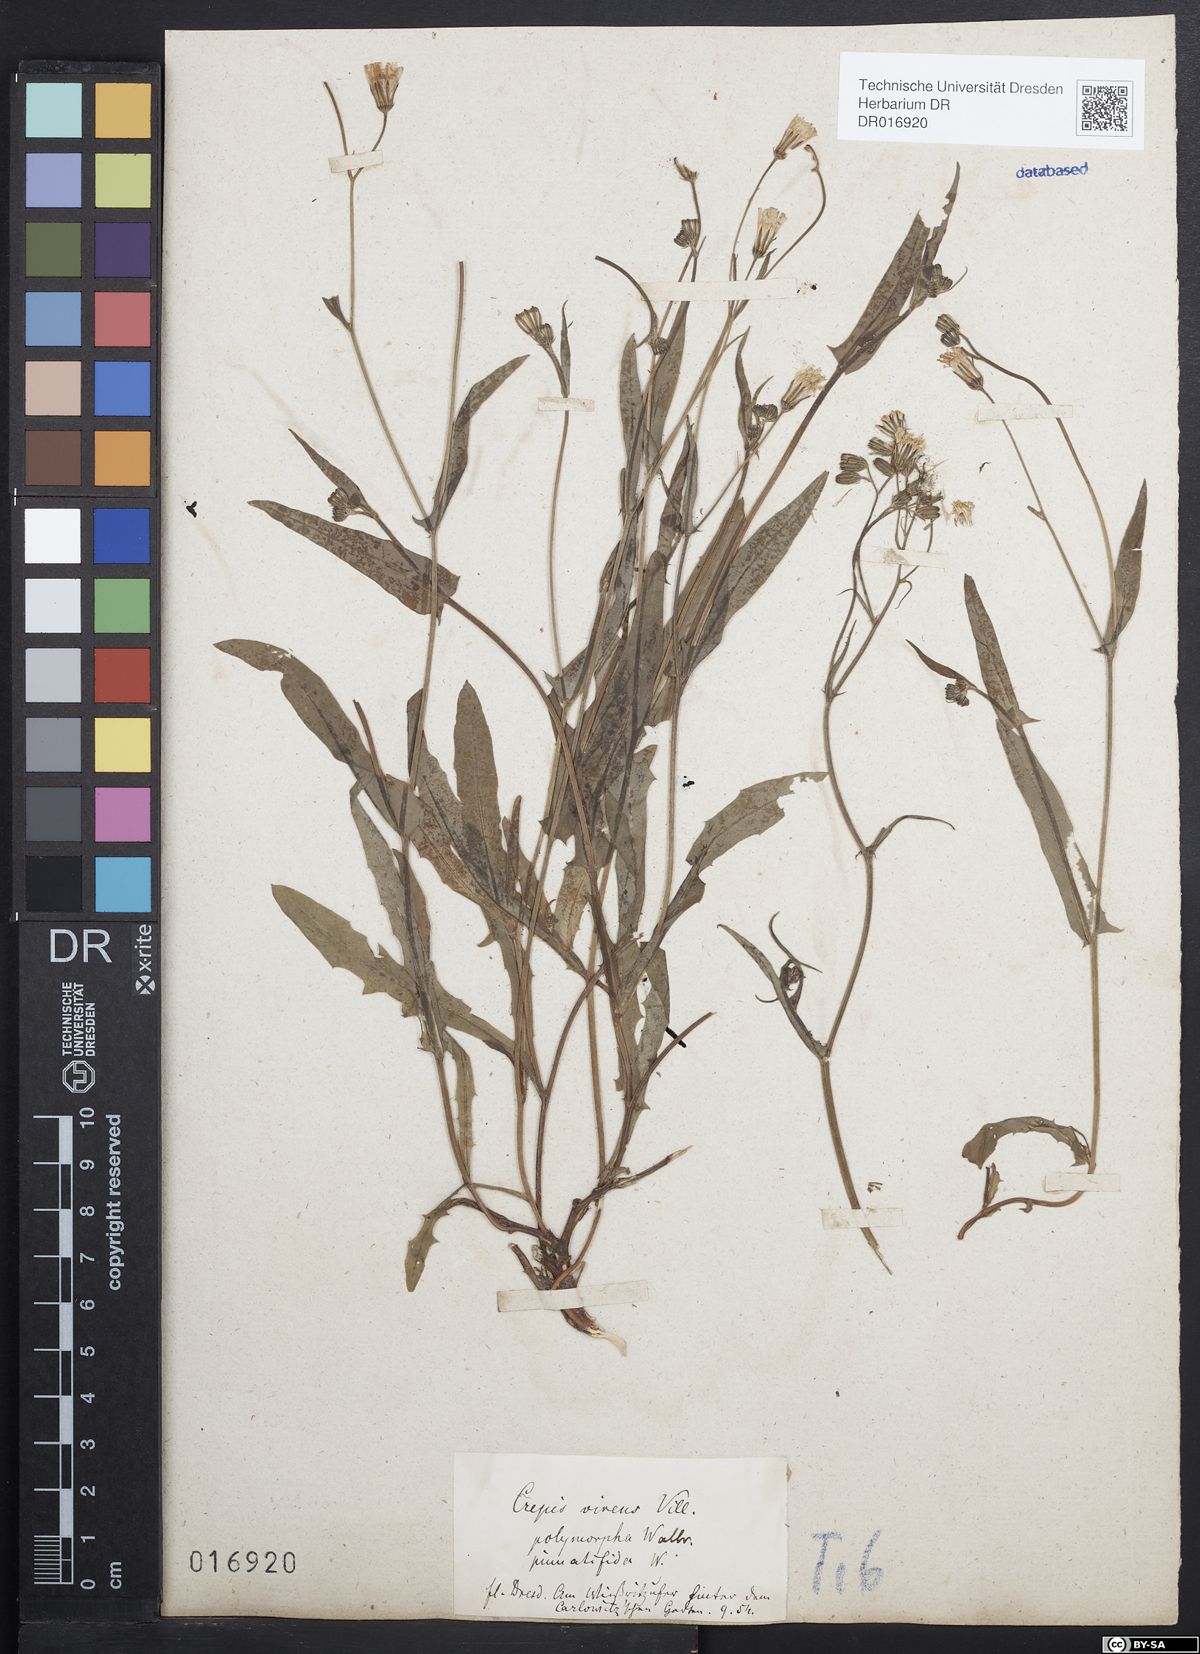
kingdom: Plantae
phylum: Tracheophyta
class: Magnoliopsida
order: Asterales
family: Asteraceae
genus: Crepis
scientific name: Crepis capillaris
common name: Smooth hawksbeard
